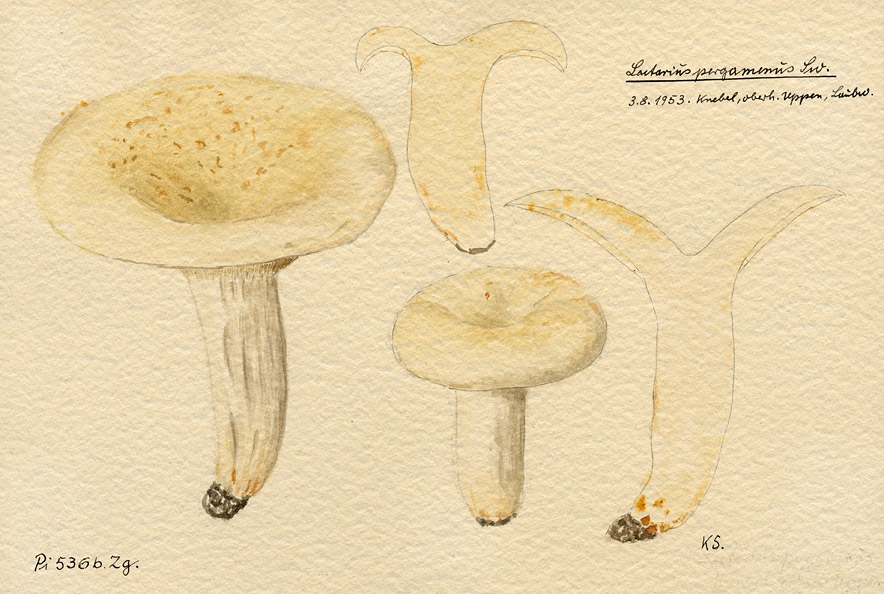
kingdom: Fungi
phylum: Basidiomycota
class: Agaricomycetes
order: Russulales
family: Russulaceae
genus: Lactifluus
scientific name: Lactifluus glaucescens
